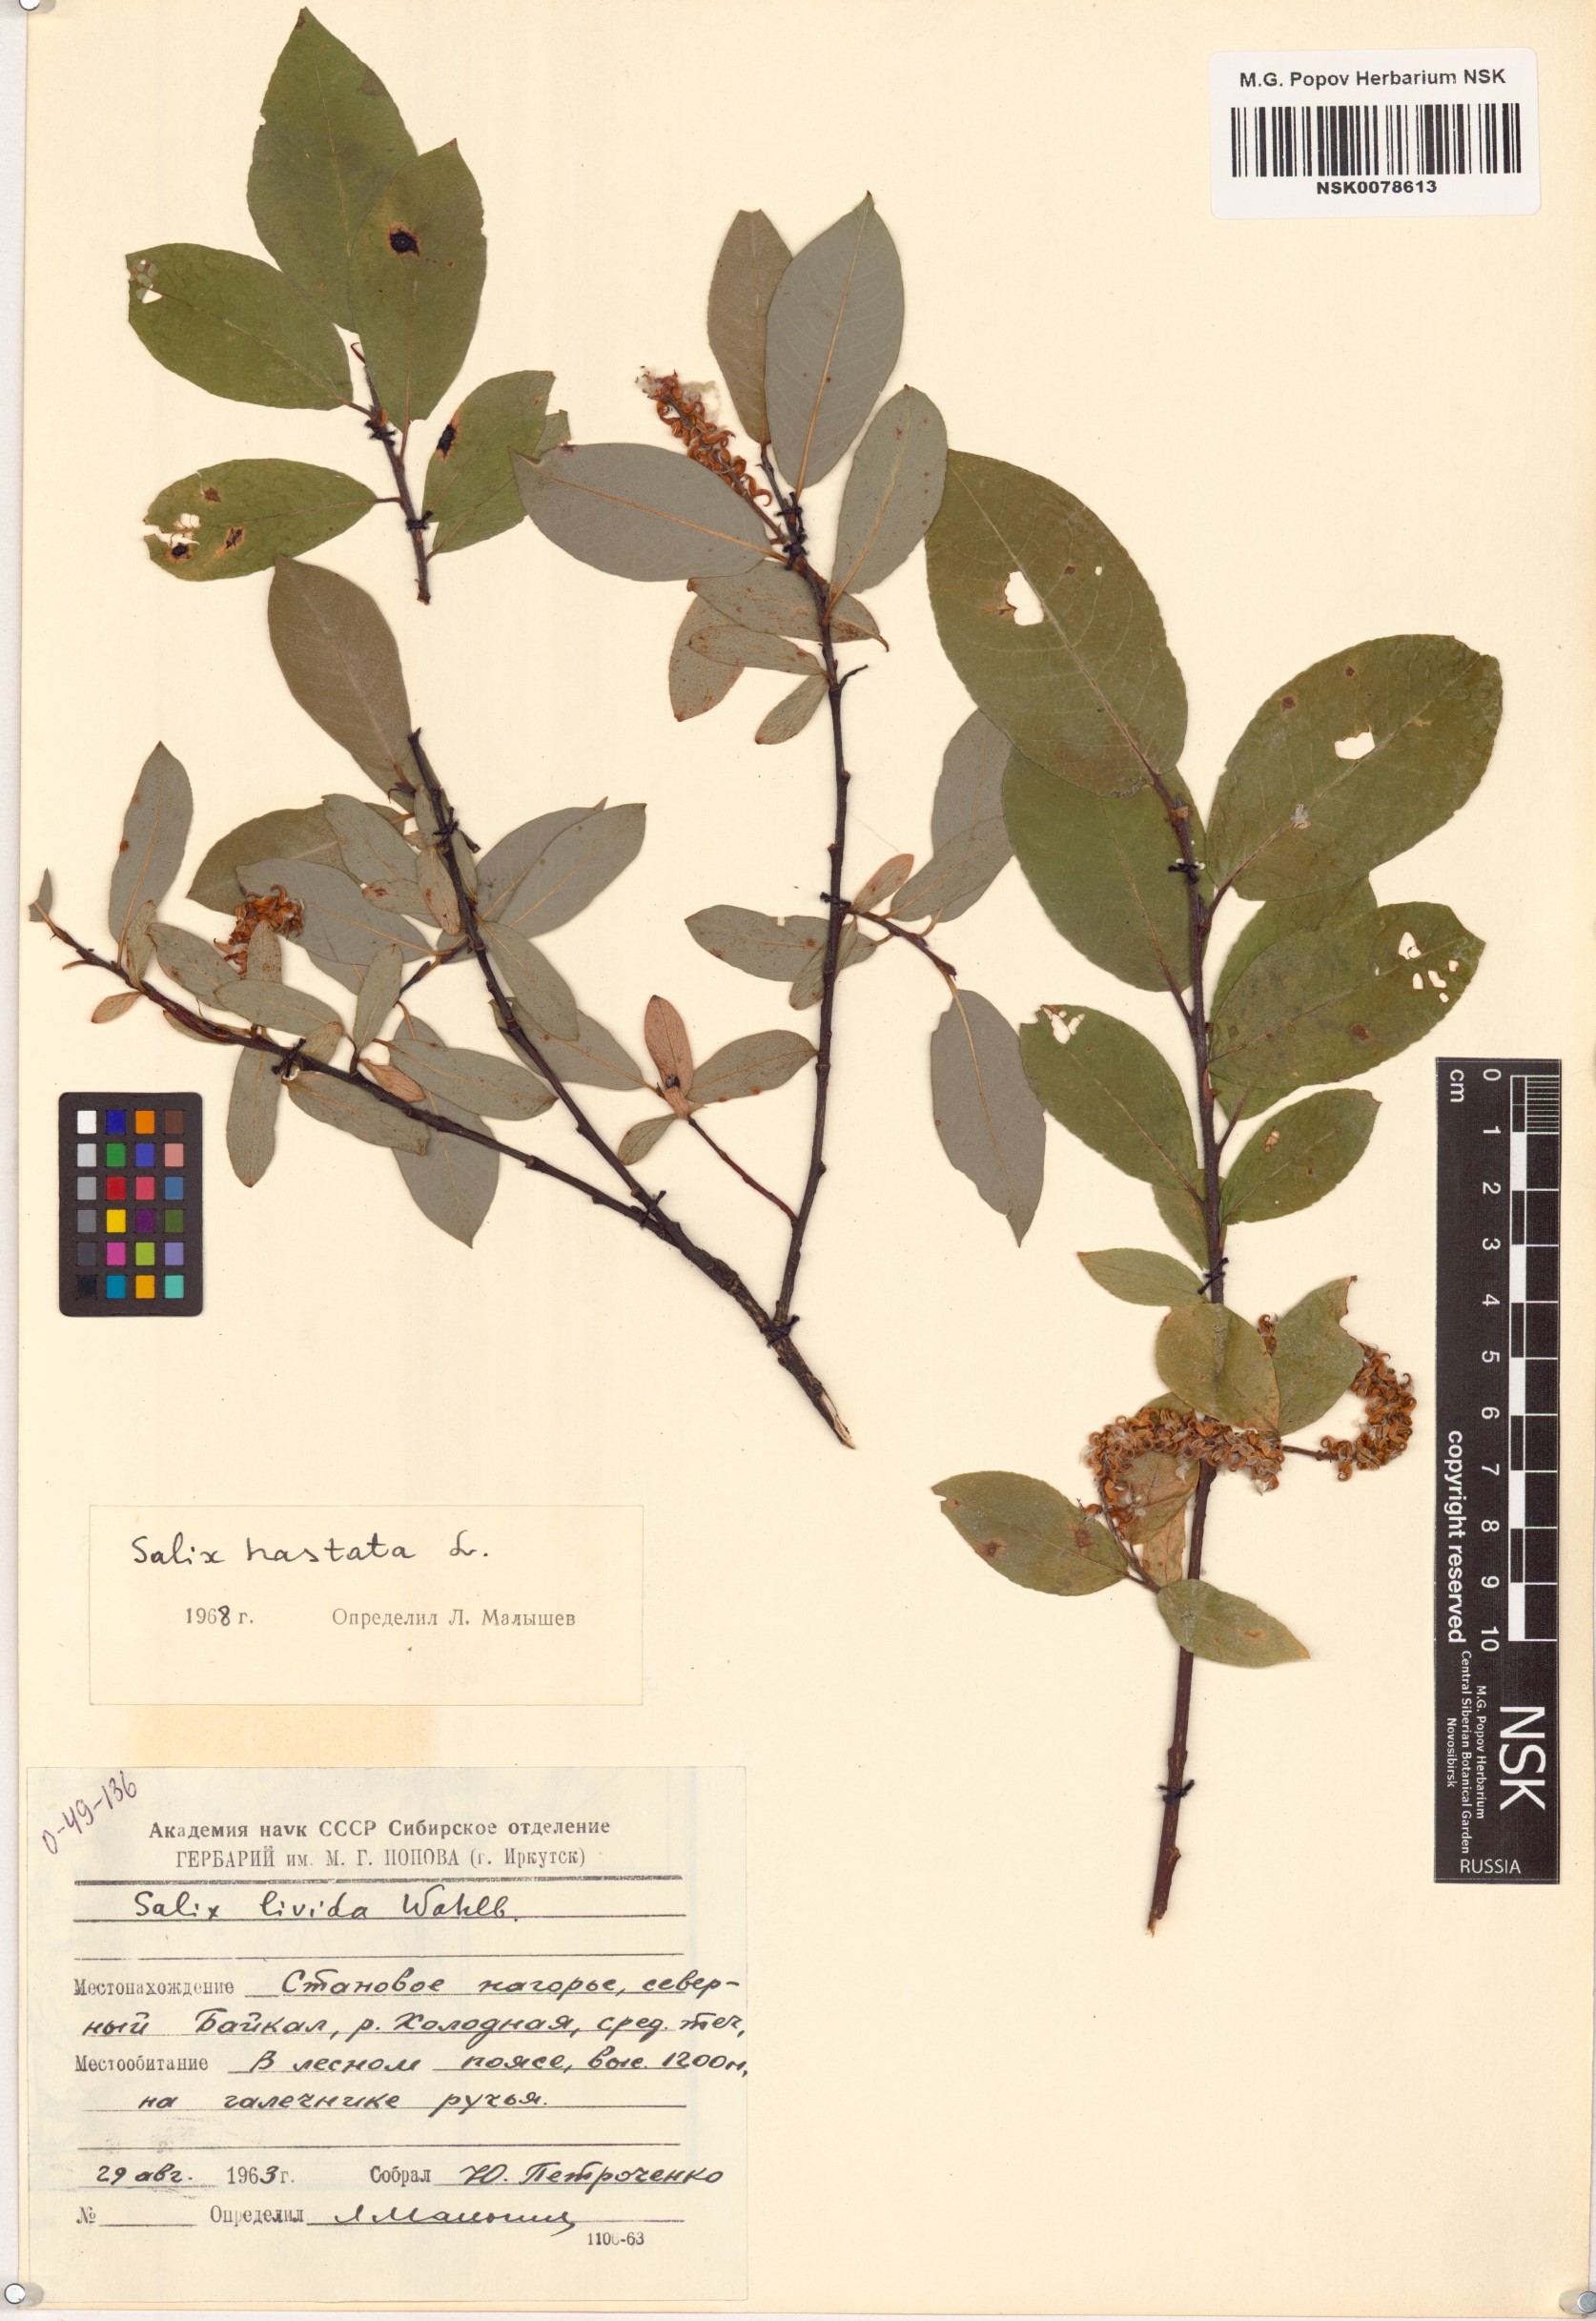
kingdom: Plantae
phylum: Tracheophyta
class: Magnoliopsida
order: Malpighiales
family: Salicaceae
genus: Salix
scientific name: Salix hastata
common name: Halberd willow
